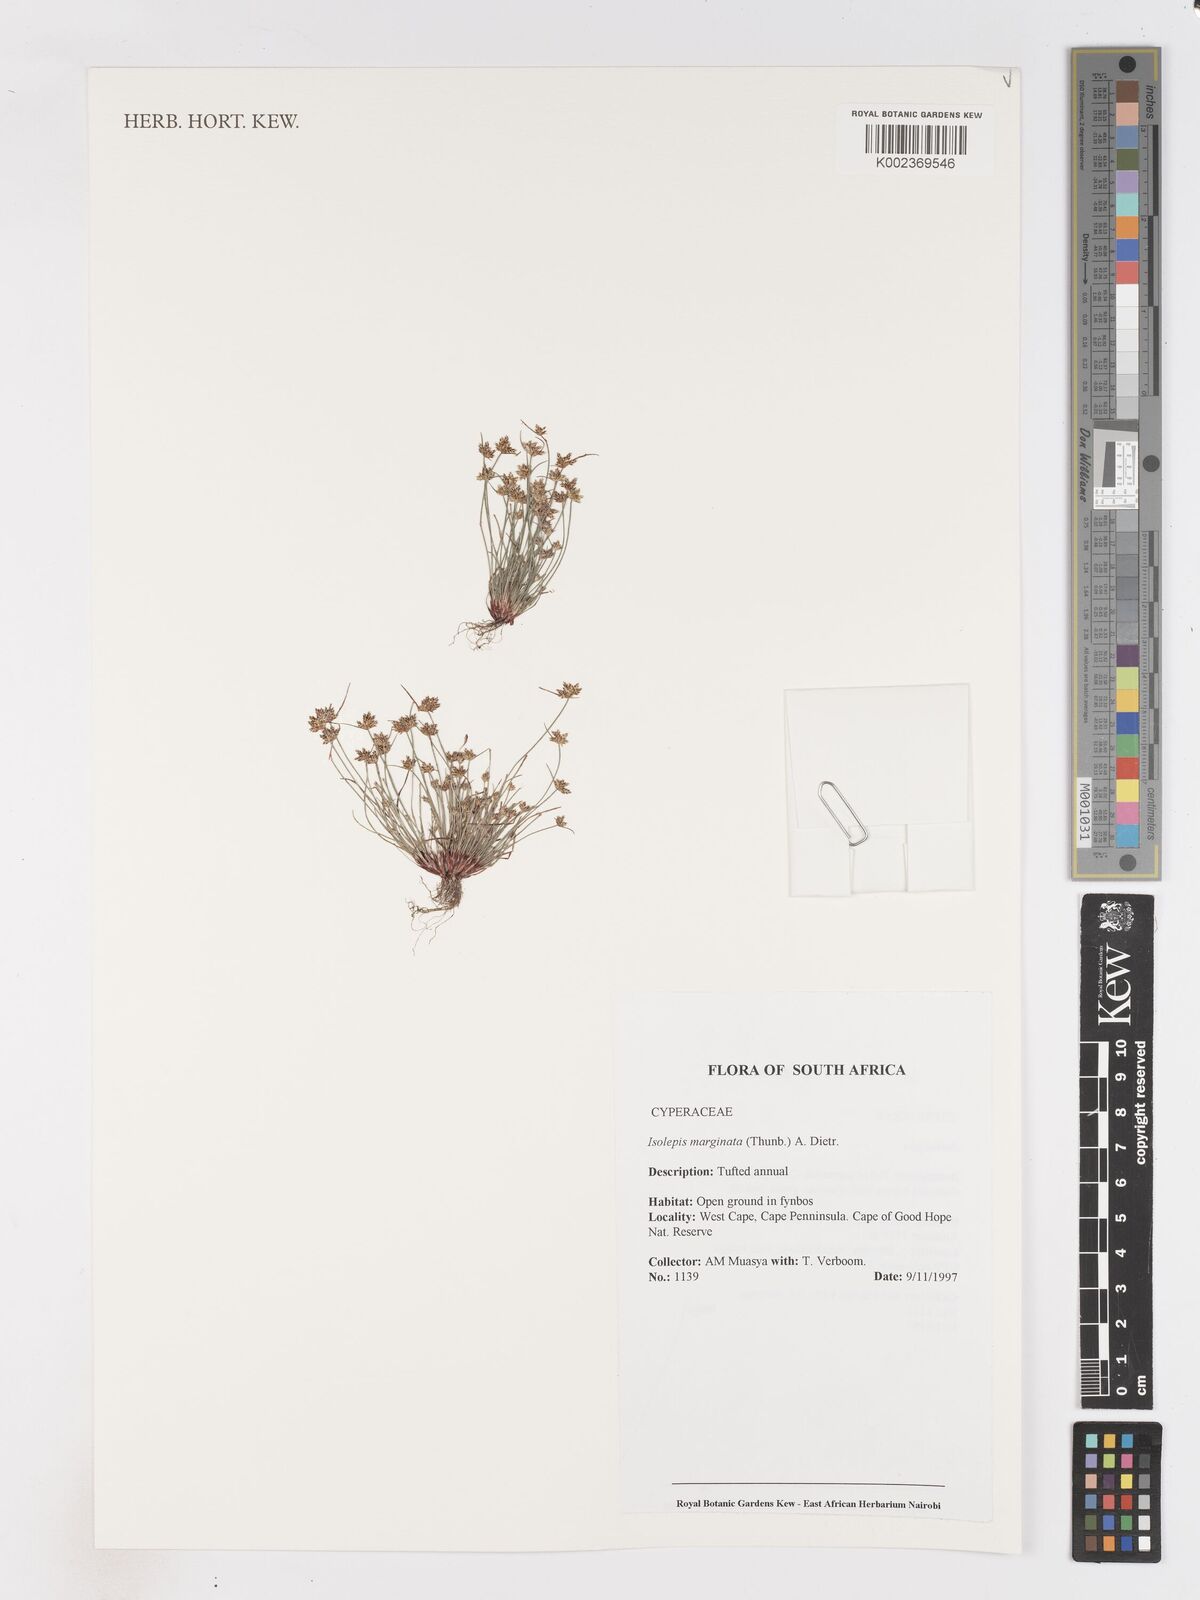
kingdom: Plantae
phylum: Tracheophyta
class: Liliopsida
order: Poales
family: Cyperaceae
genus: Isolepis
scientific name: Isolepis marginata
